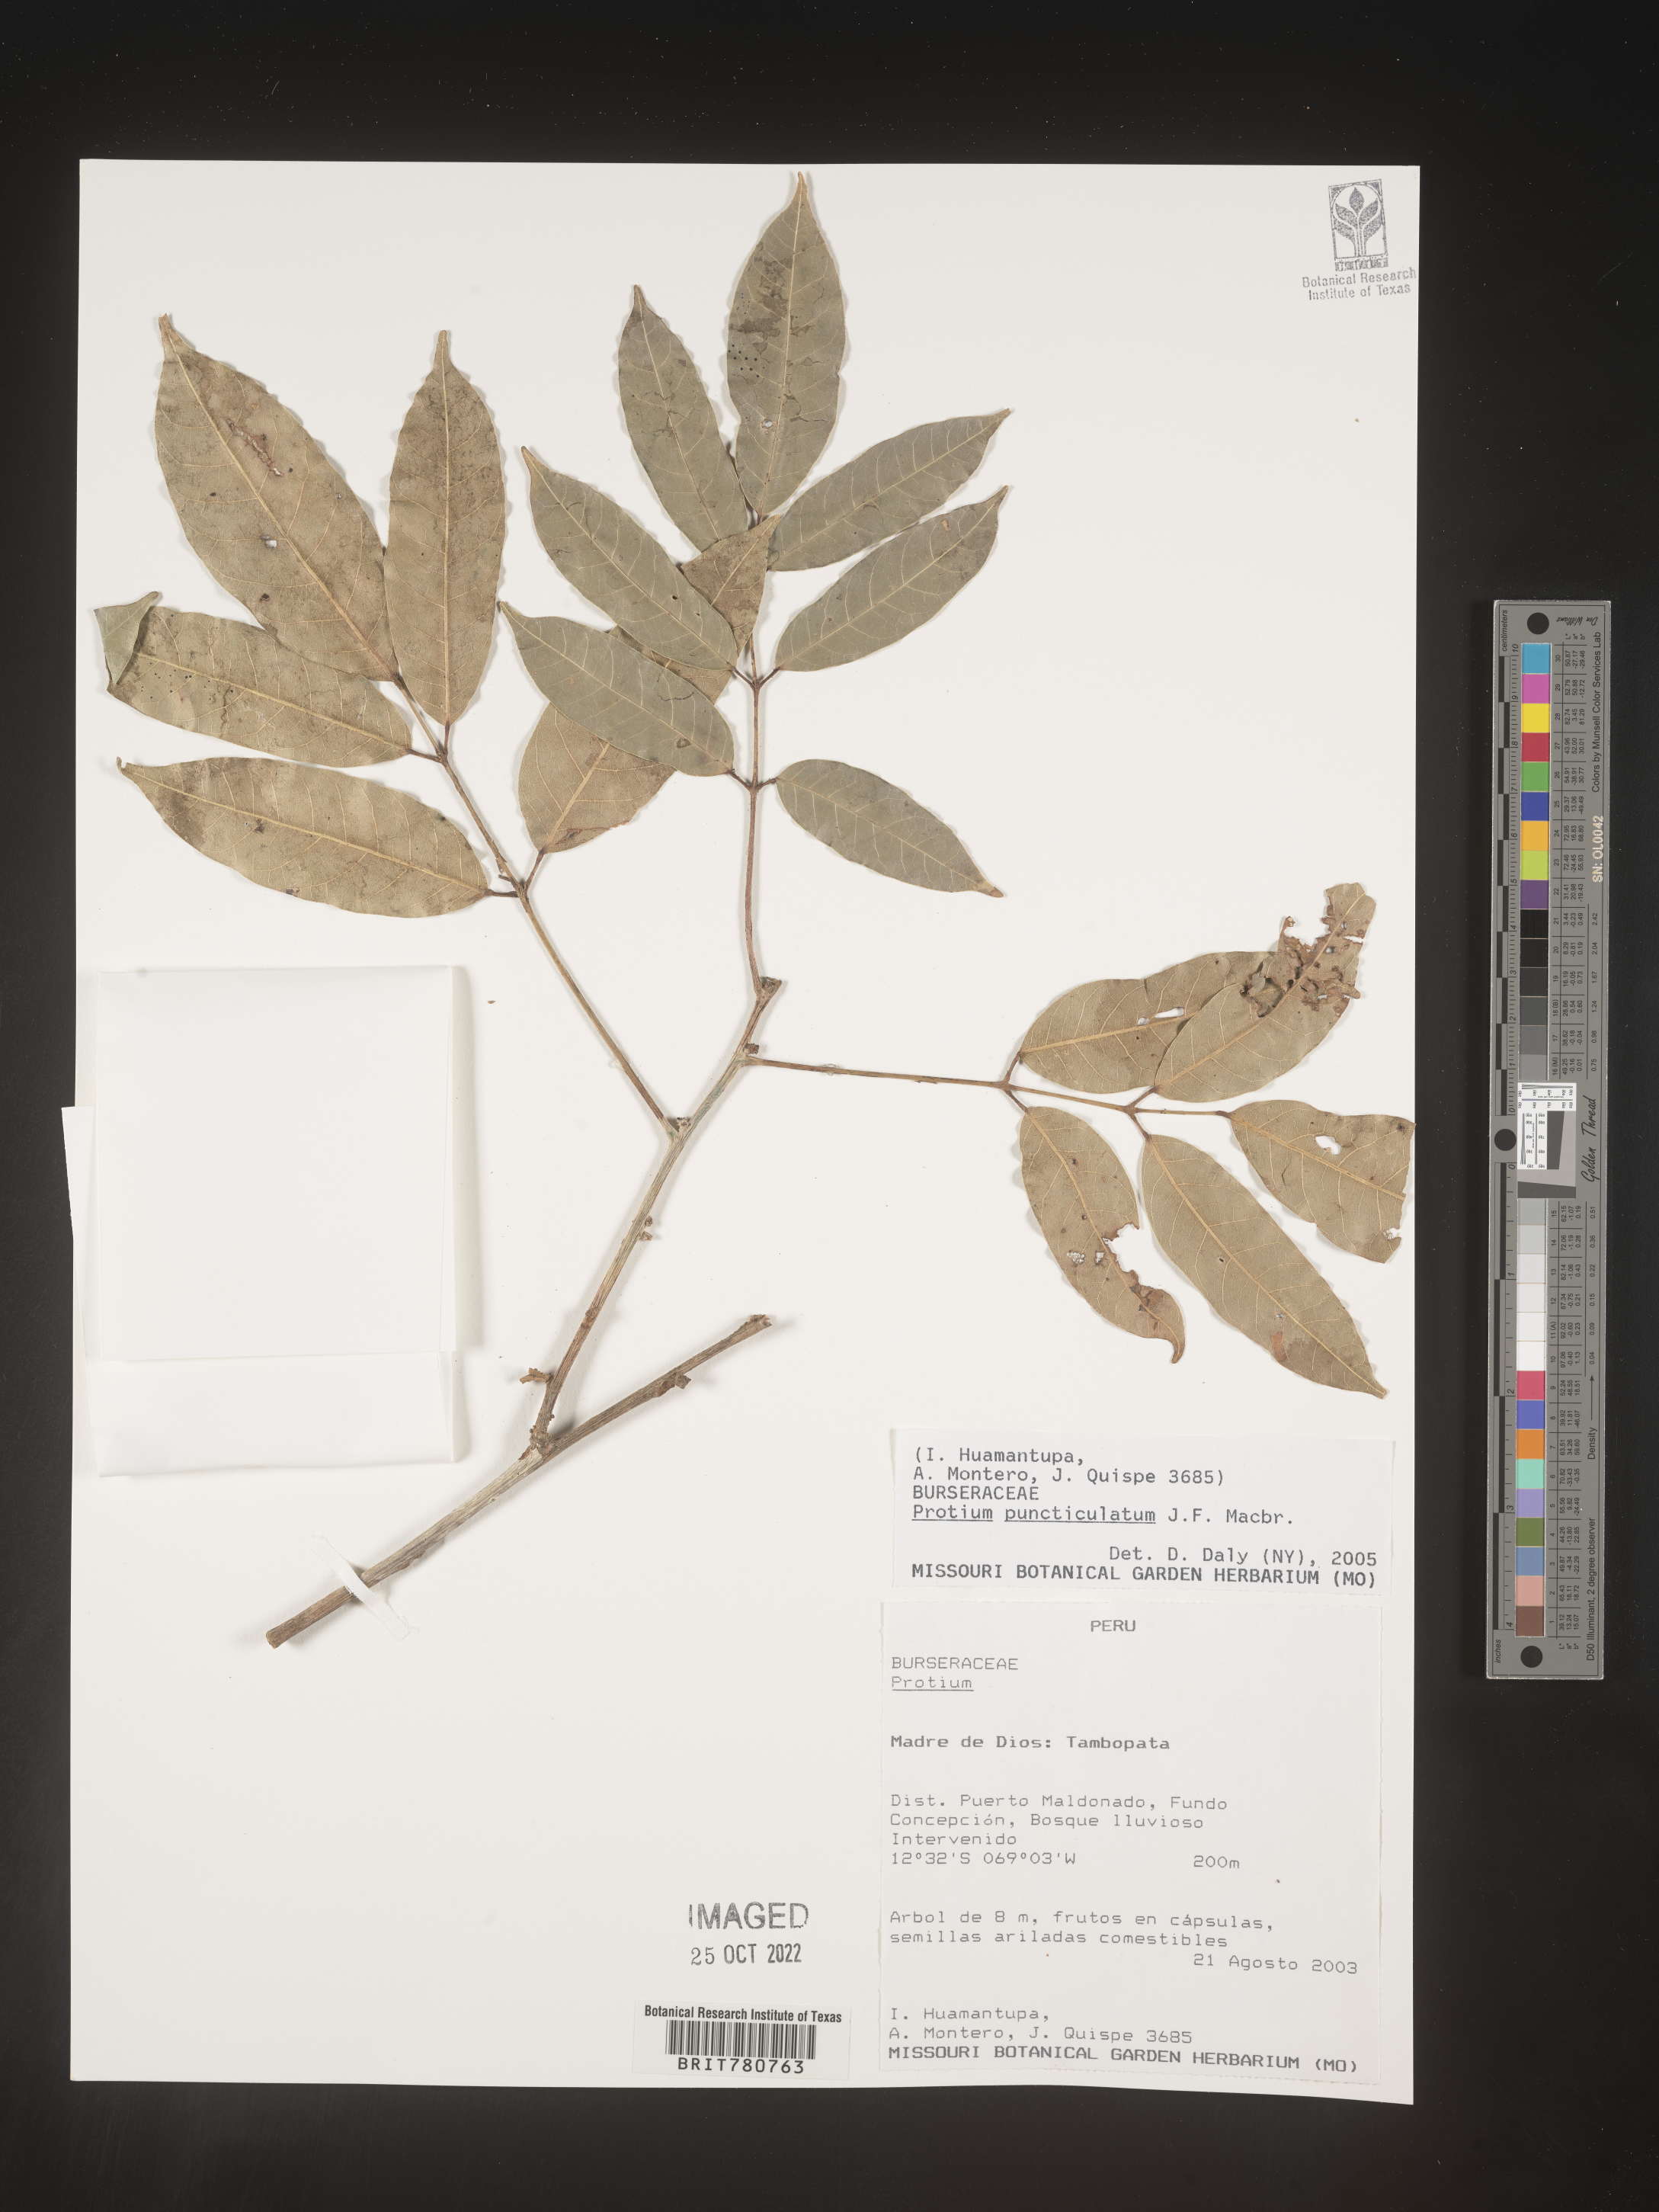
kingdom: Plantae
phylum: Tracheophyta
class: Magnoliopsida
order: Sapindales
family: Burseraceae
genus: Protium
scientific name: Protium
